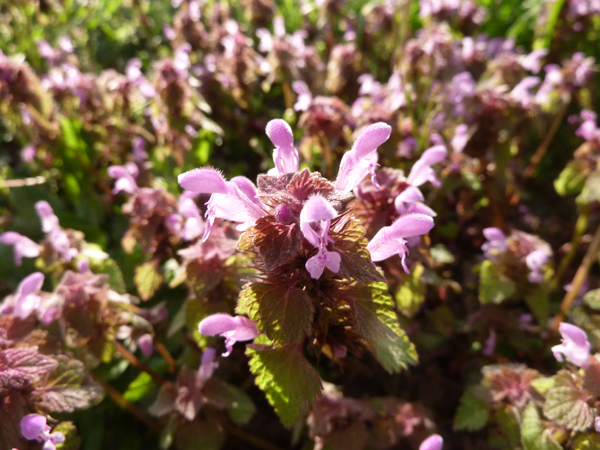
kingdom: Plantae
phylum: Tracheophyta
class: Magnoliopsida
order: Lamiales
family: Lamiaceae
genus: Lamium
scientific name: Lamium purpureum
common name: Red dead-nettle
